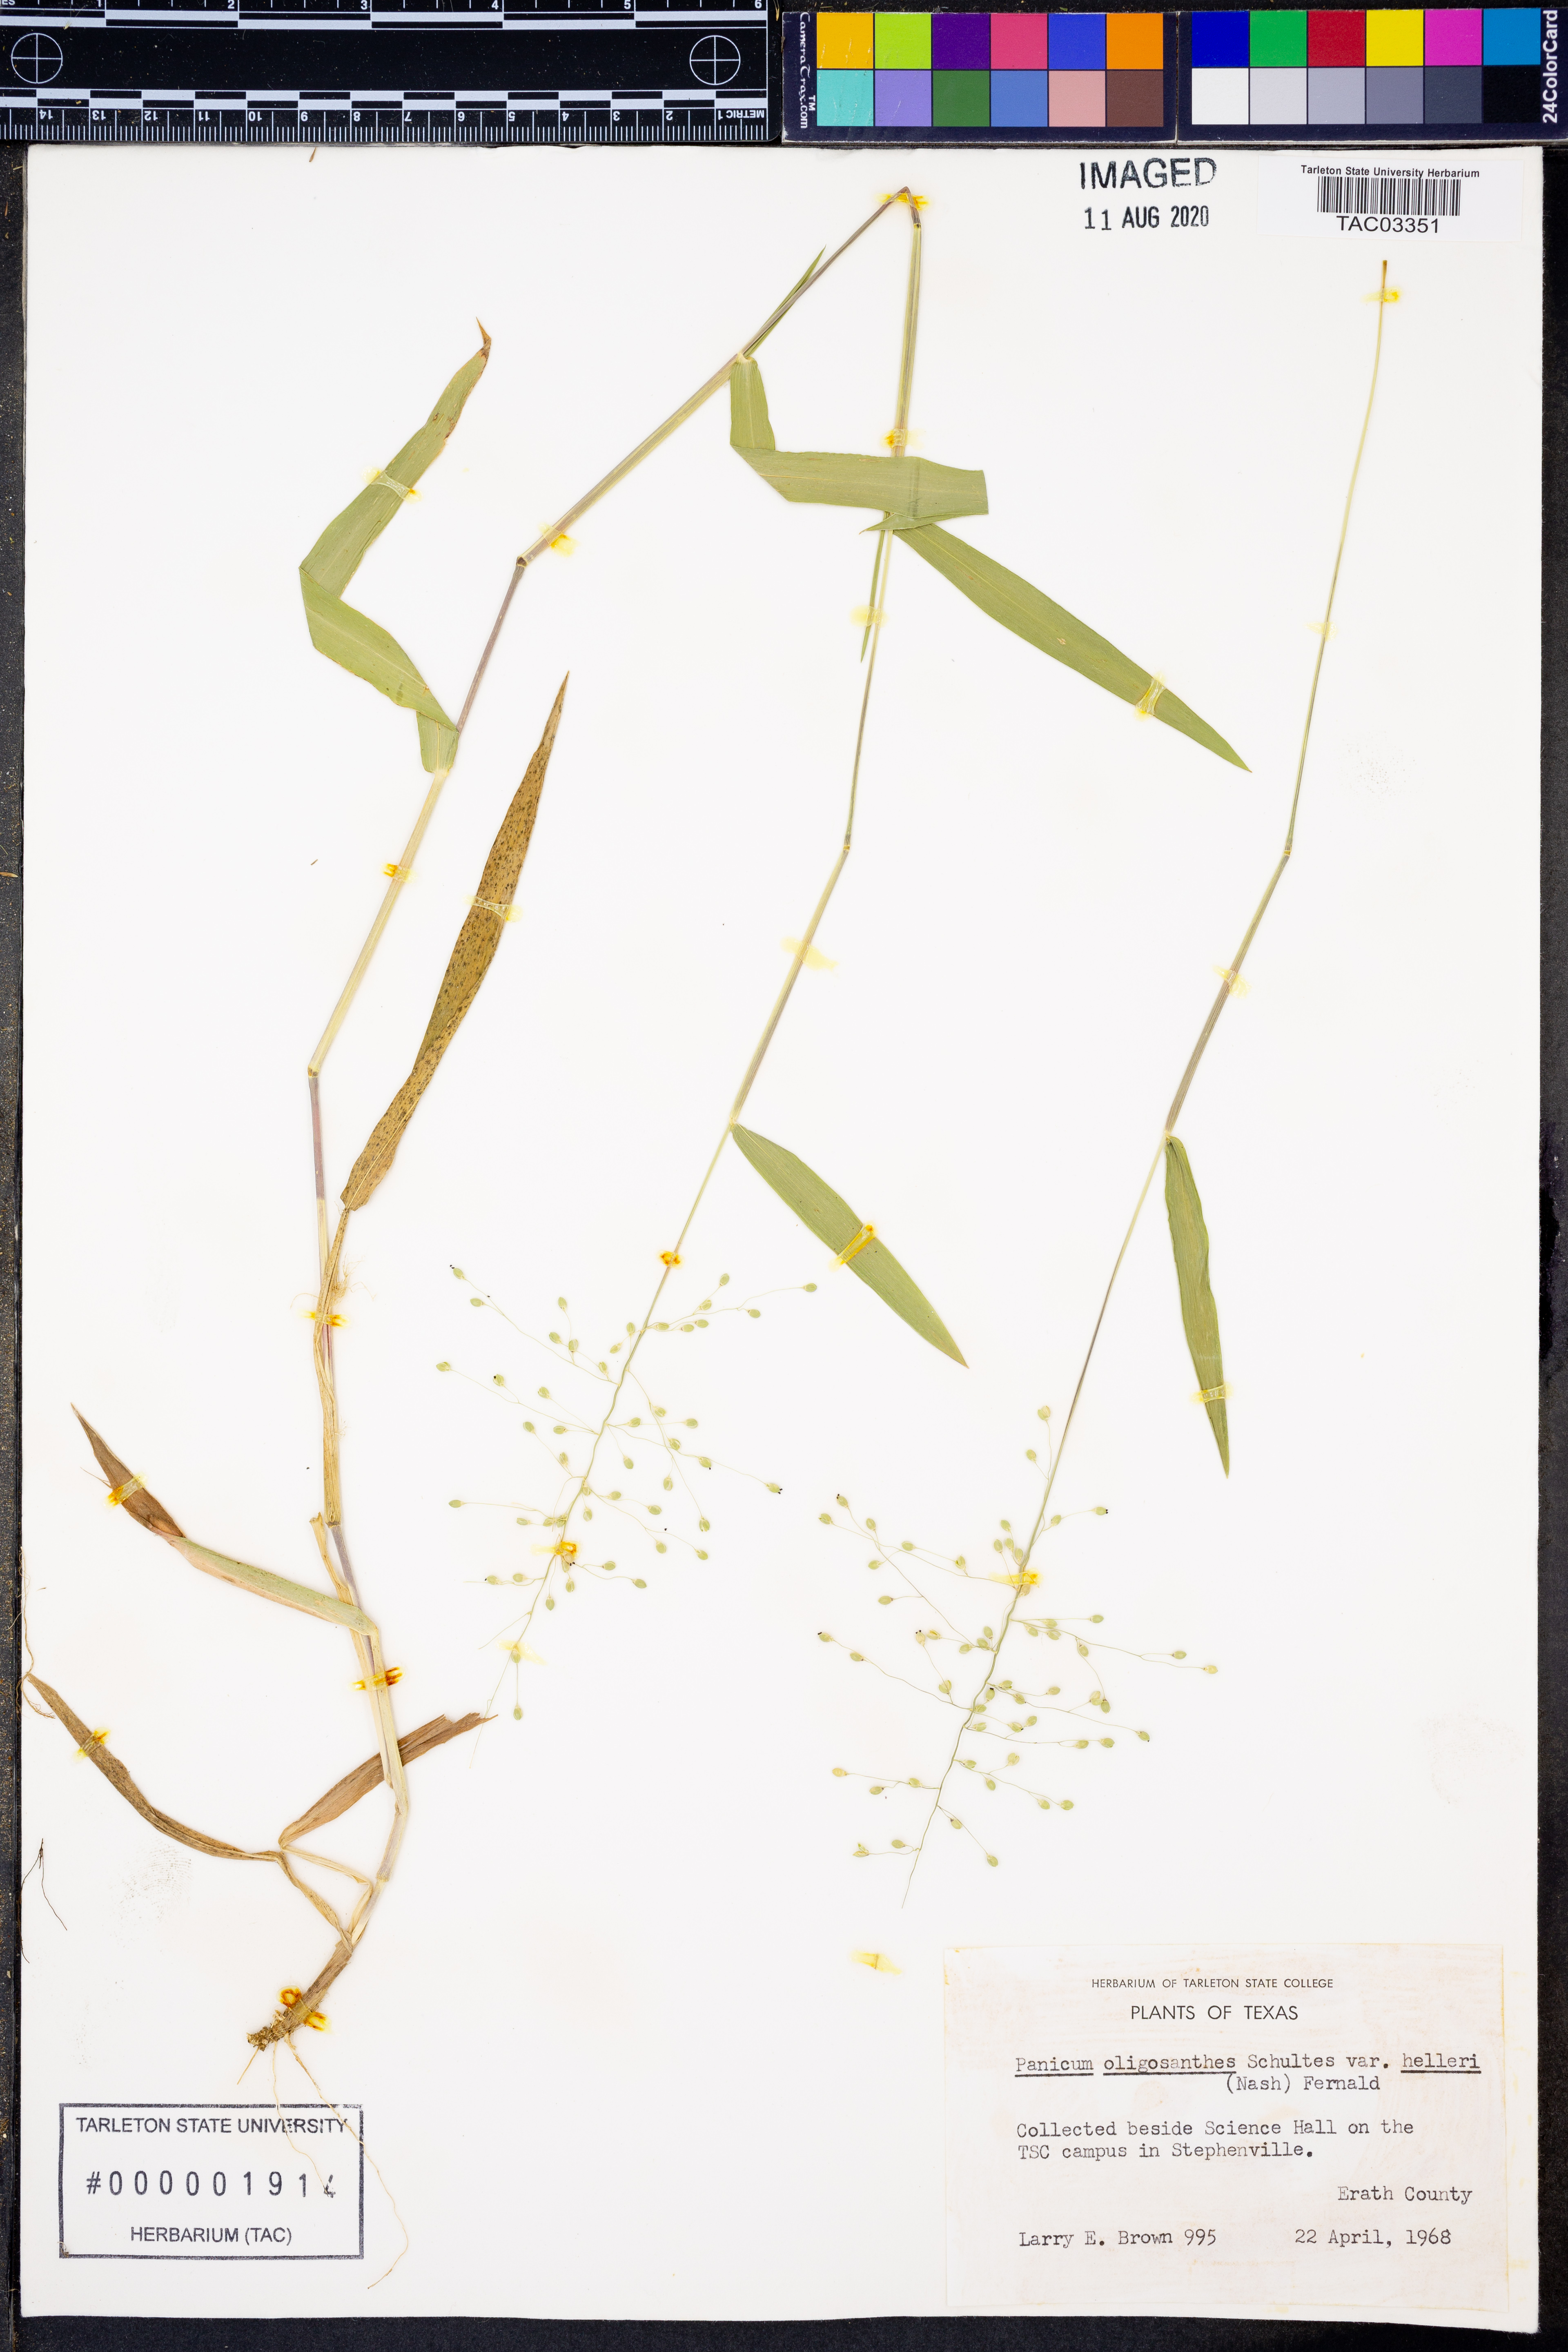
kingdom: Plantae
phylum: Tracheophyta
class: Liliopsida
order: Poales
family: Poaceae
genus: Dichanthelium
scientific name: Dichanthelium oligosanthes
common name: Few-anther obscuregrass
